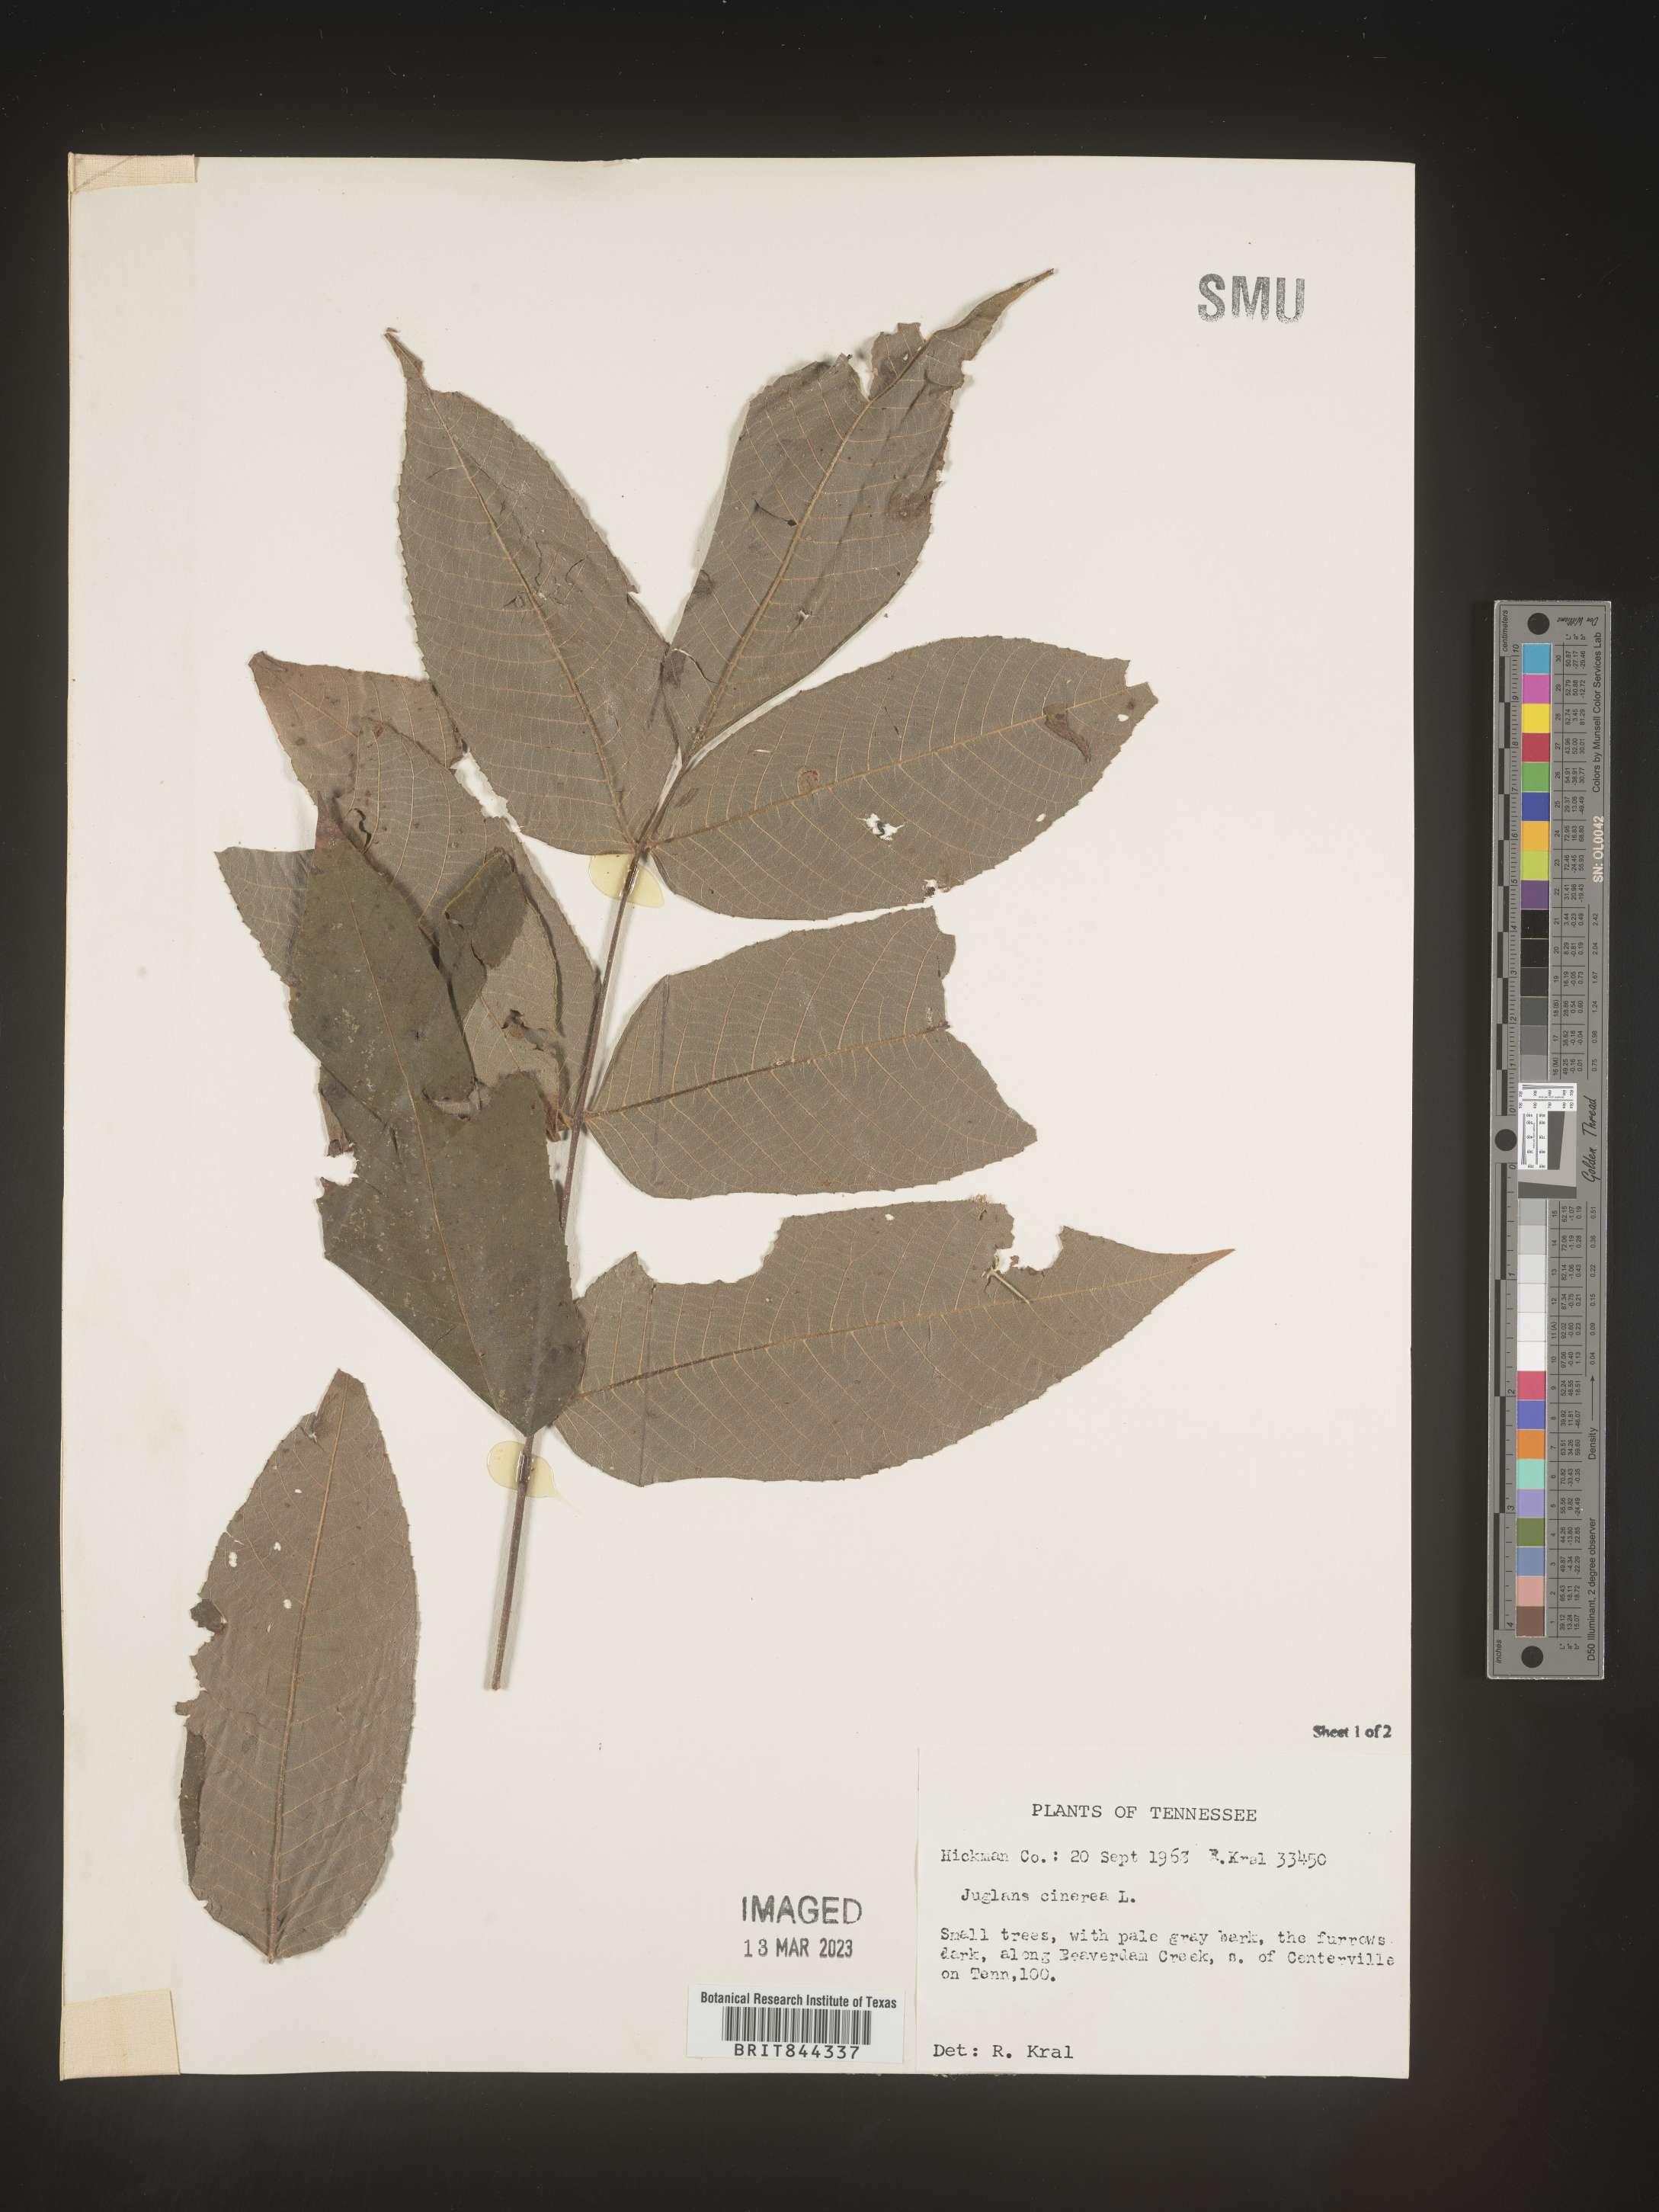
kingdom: Plantae
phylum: Tracheophyta
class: Magnoliopsida
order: Fagales
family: Juglandaceae
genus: Juglans
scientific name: Juglans cinerea
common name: Butternut
